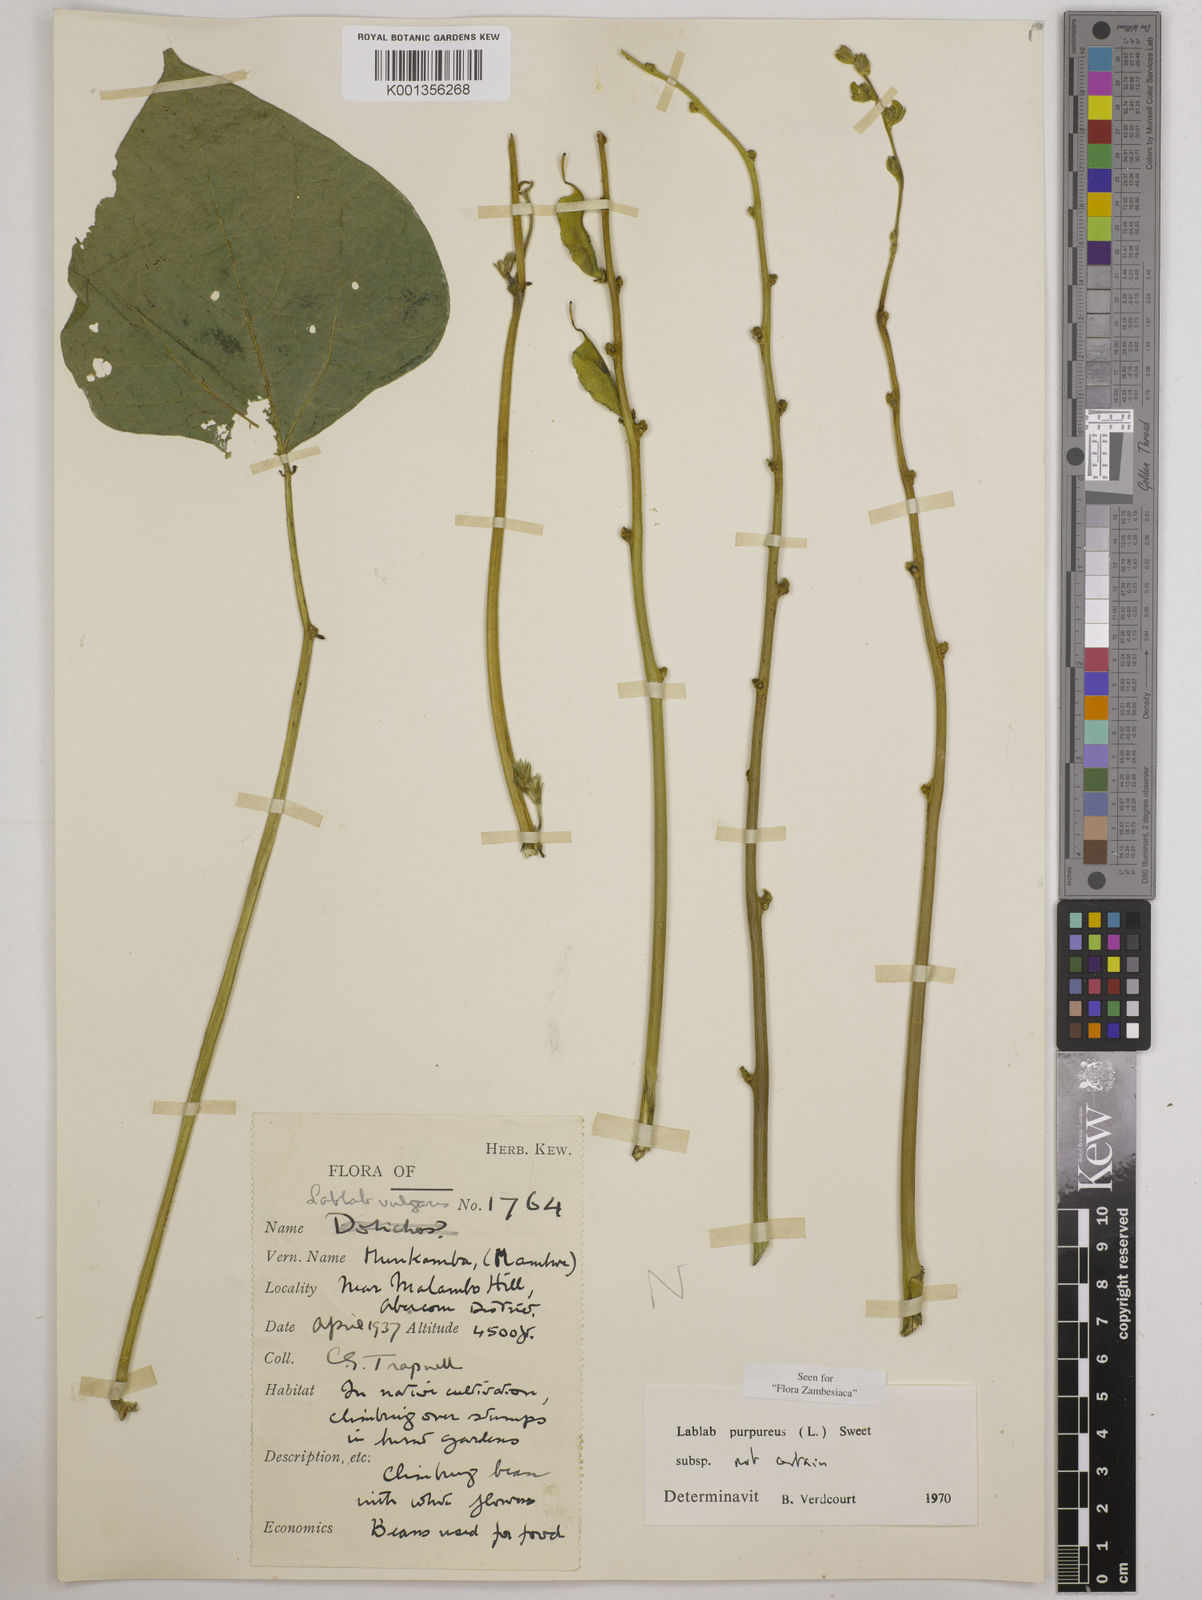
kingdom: Plantae
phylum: Tracheophyta
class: Magnoliopsida
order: Fabales
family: Fabaceae
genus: Lablab
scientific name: Lablab purpureus
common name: Lablab-bean
